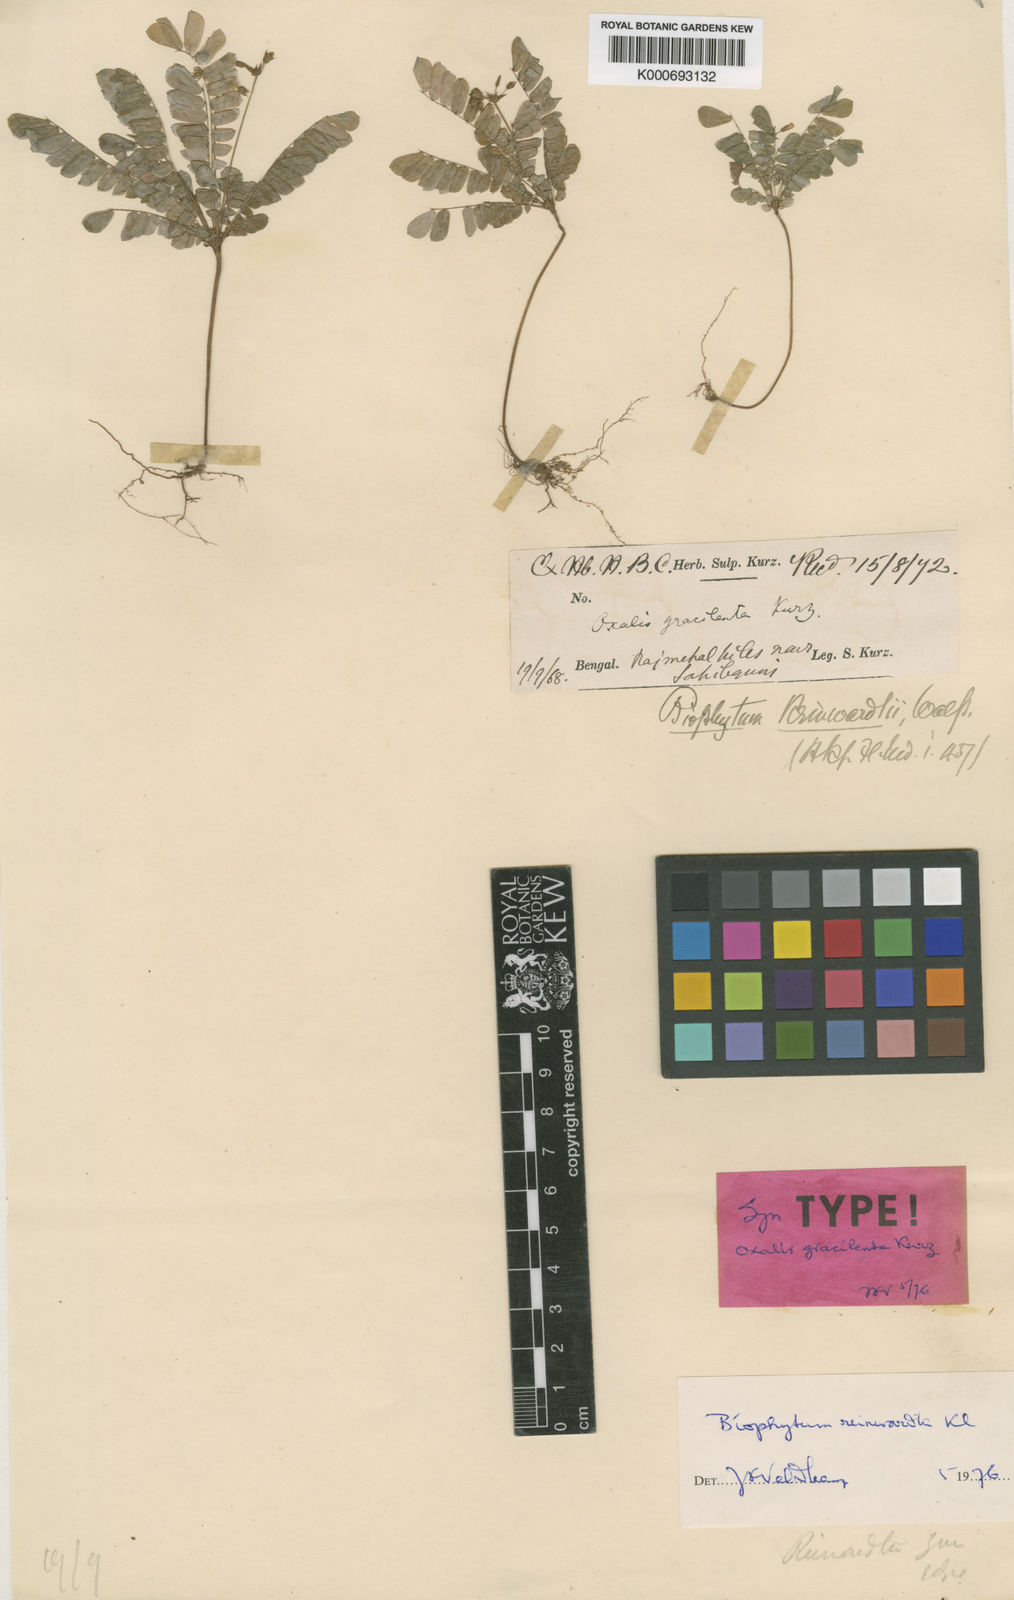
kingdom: Plantae
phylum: Tracheophyta
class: Magnoliopsida
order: Oxalidales
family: Oxalidaceae
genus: Biophytum
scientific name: Biophytum reinwardtii
